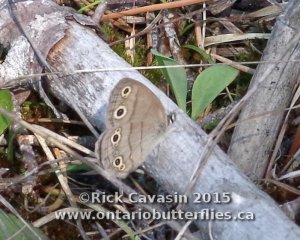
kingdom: Animalia
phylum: Arthropoda
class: Insecta
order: Lepidoptera
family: Nymphalidae
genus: Euptychia
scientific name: Euptychia cymela
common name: Little Wood Satyr
